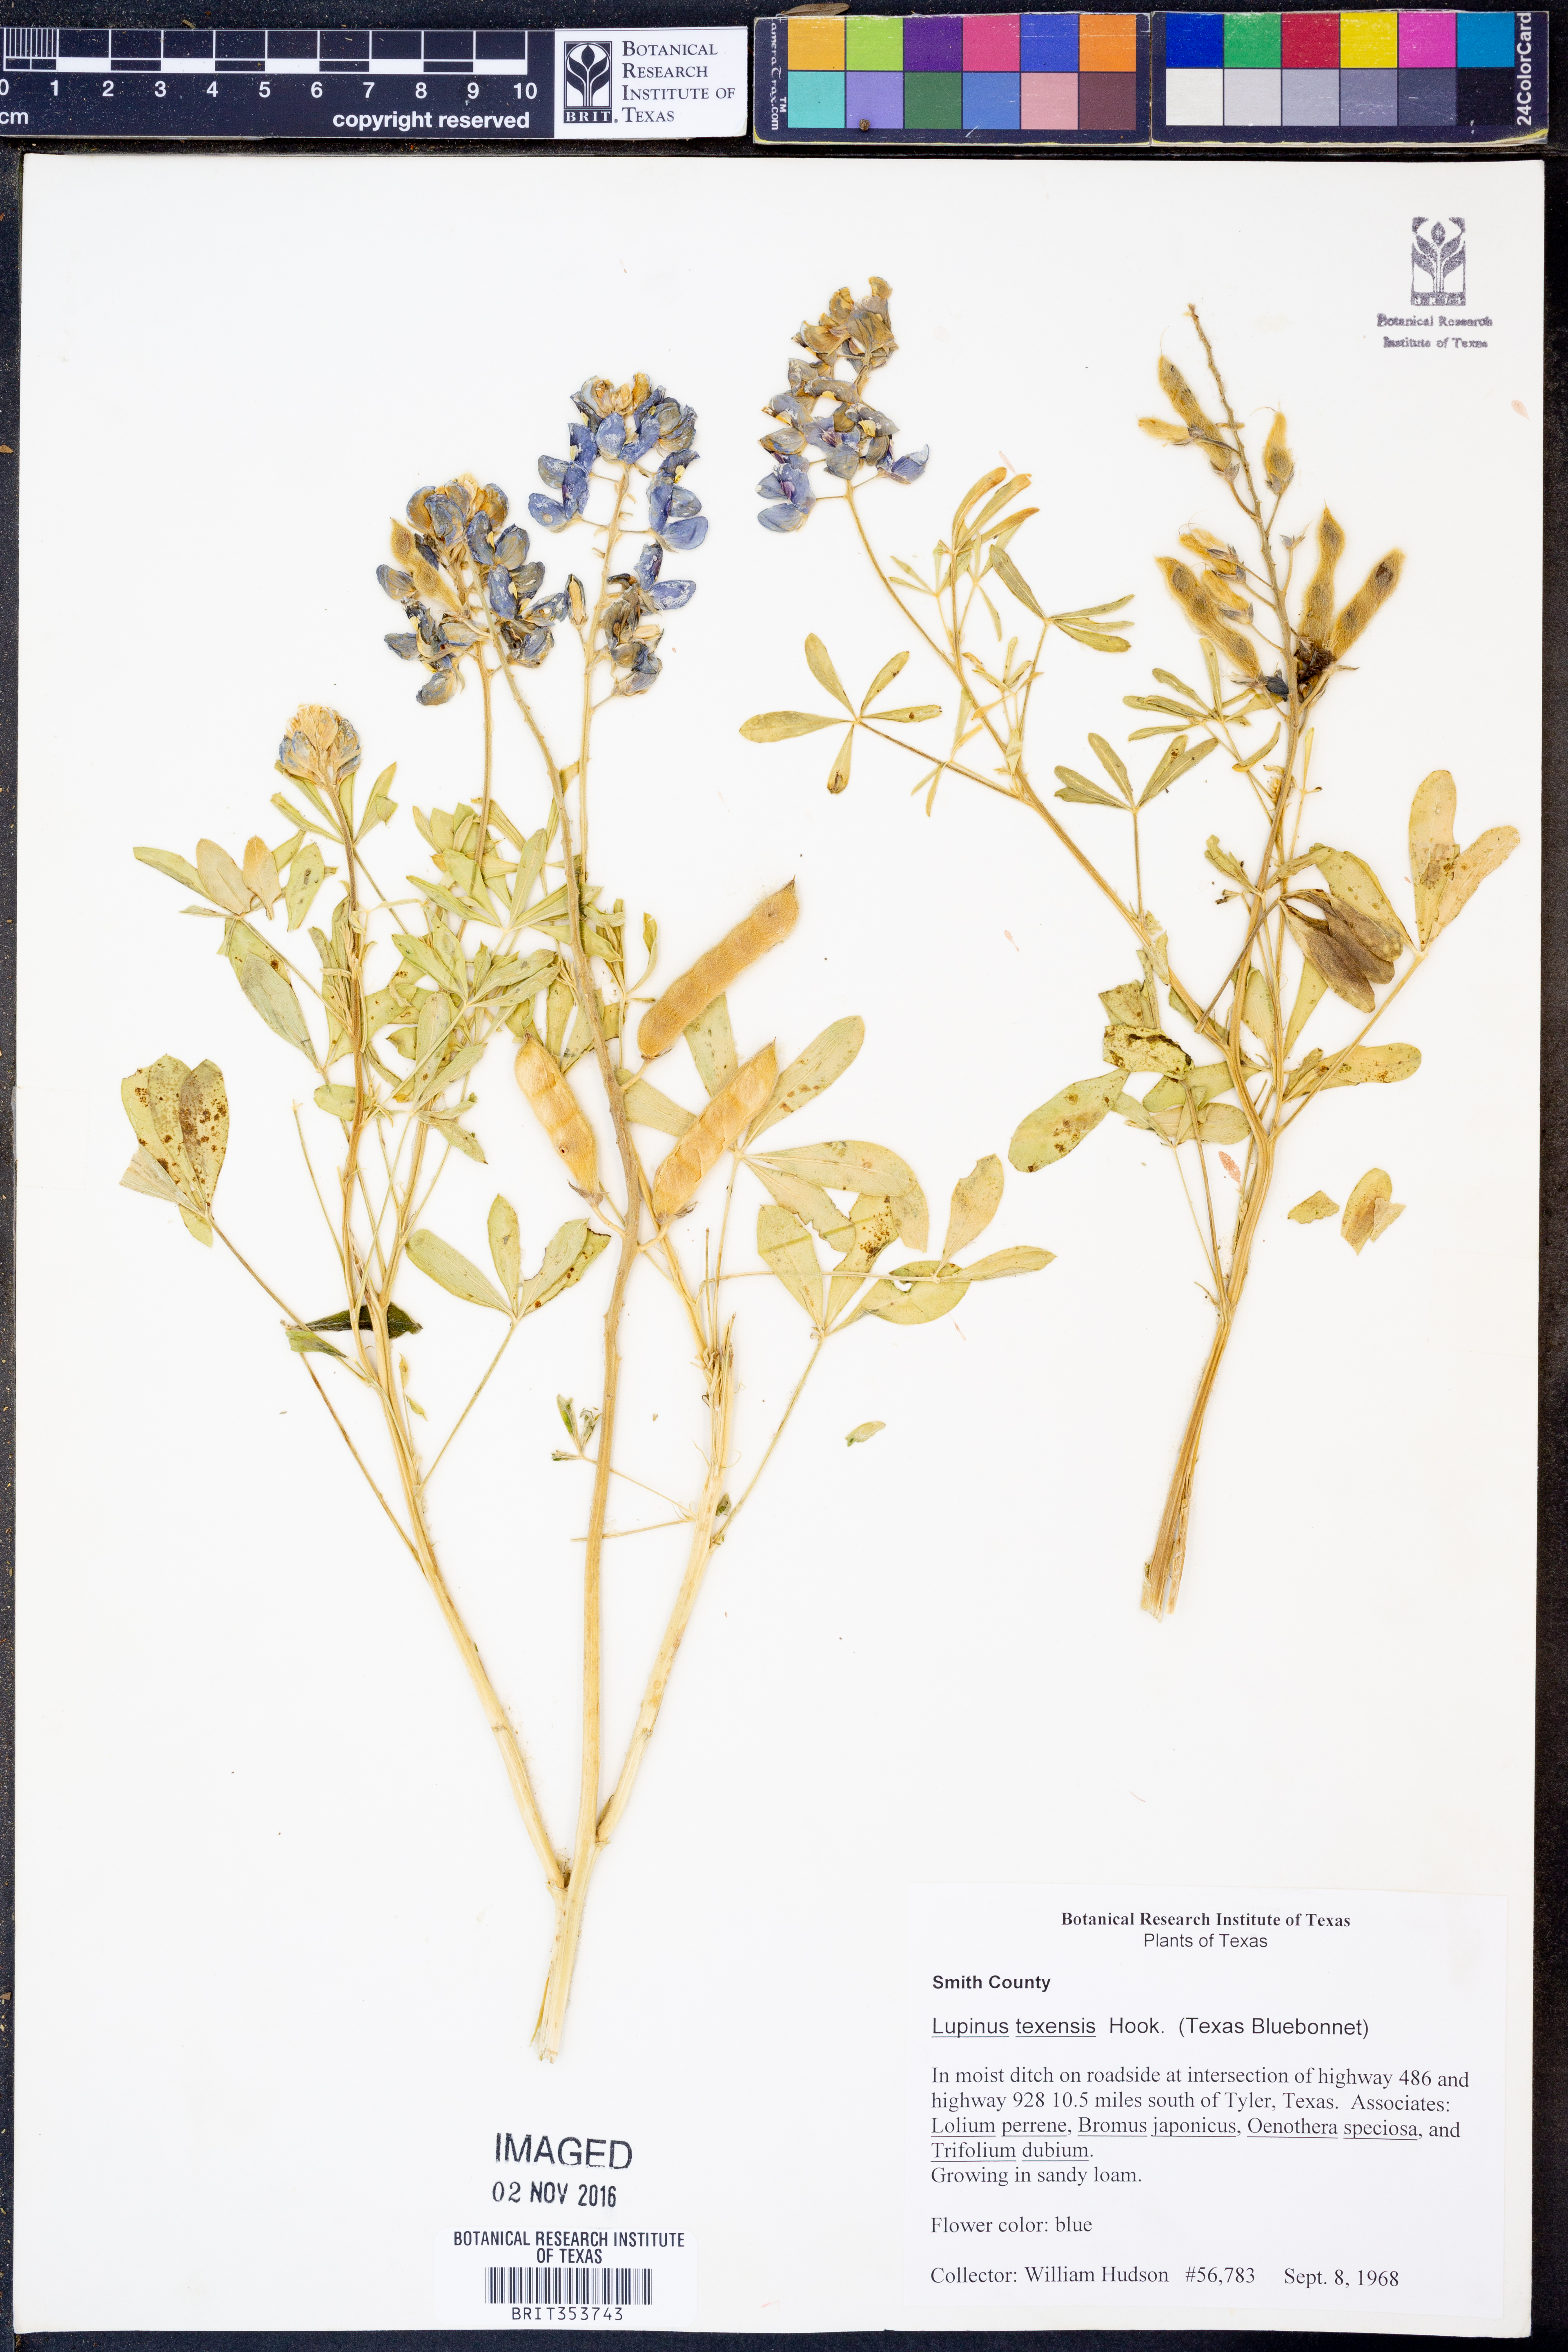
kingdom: Plantae
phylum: Tracheophyta
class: Magnoliopsida
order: Fabales
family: Fabaceae
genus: Lupinus
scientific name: Lupinus texensis
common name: Texas bluebonnet
